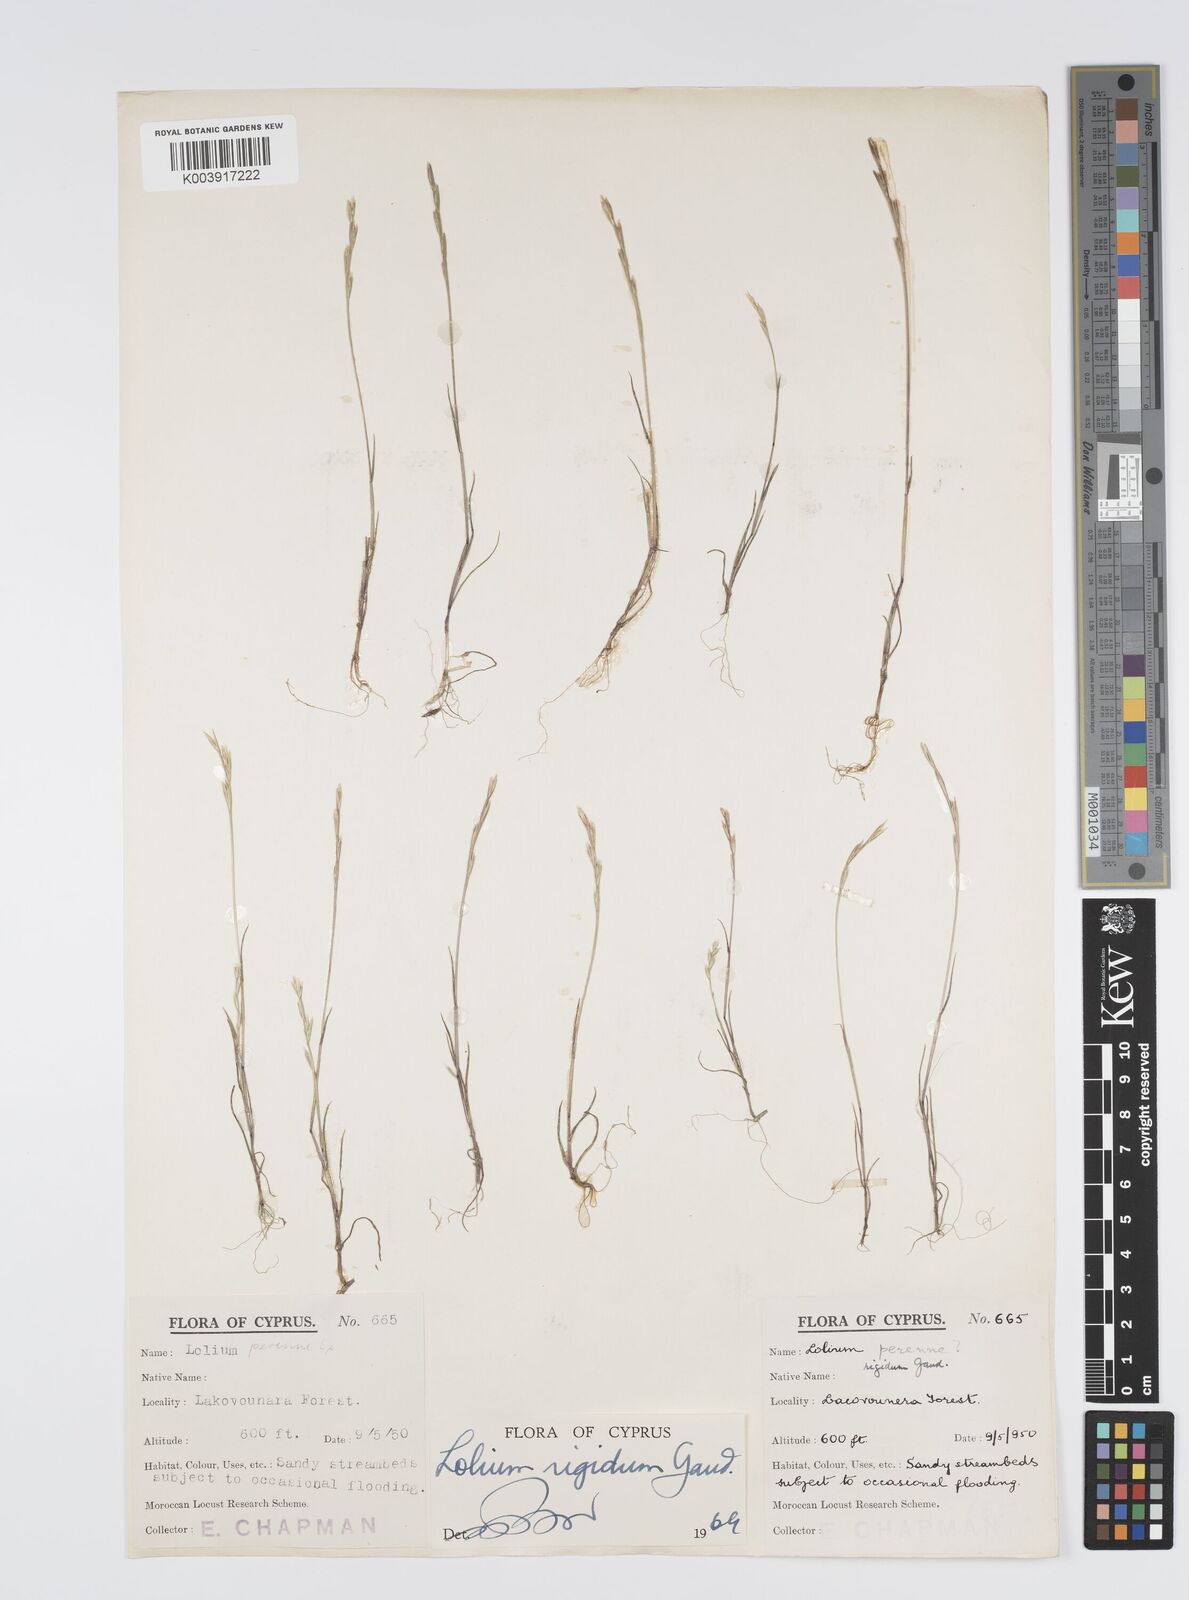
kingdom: Plantae
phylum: Tracheophyta
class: Liliopsida
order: Poales
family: Poaceae
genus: Lolium
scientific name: Lolium rigidum
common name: Wimmera ryegrass
